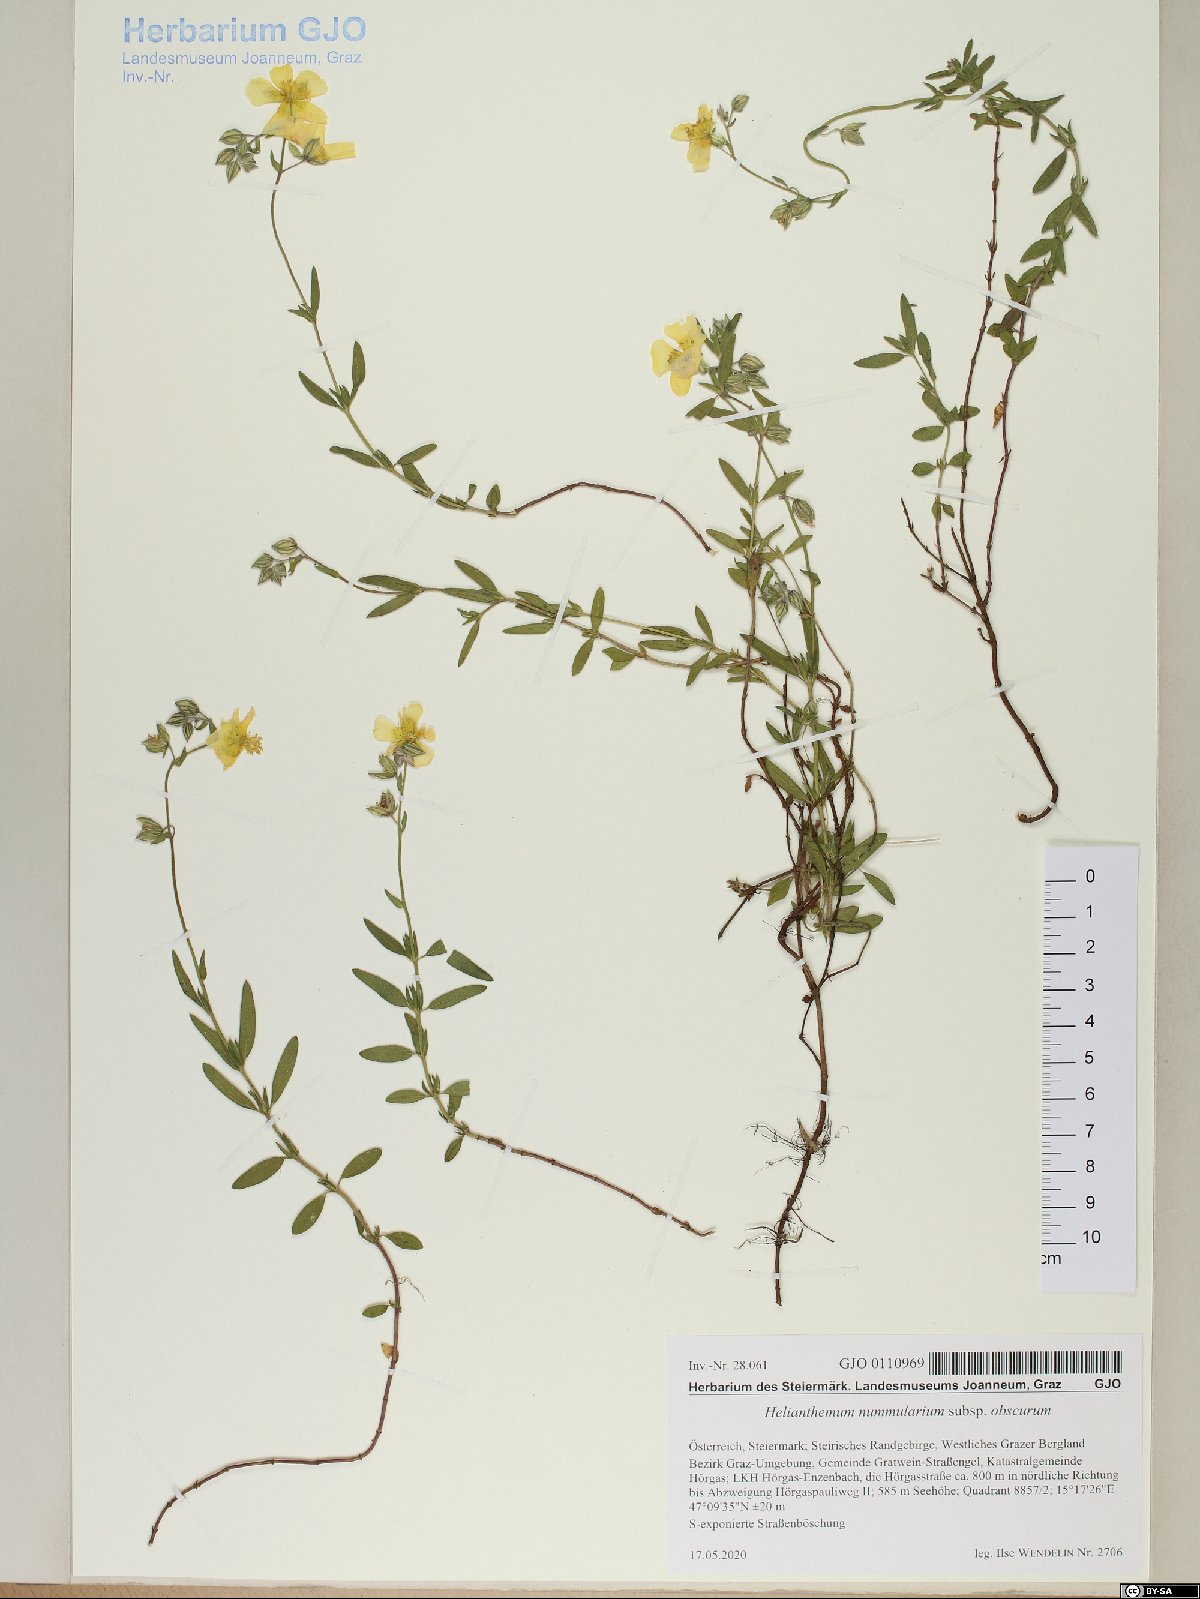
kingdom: Plantae
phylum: Tracheophyta
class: Magnoliopsida
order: Malvales
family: Cistaceae
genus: Helianthemum
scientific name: Helianthemum nummularium
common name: Common rock-rose
